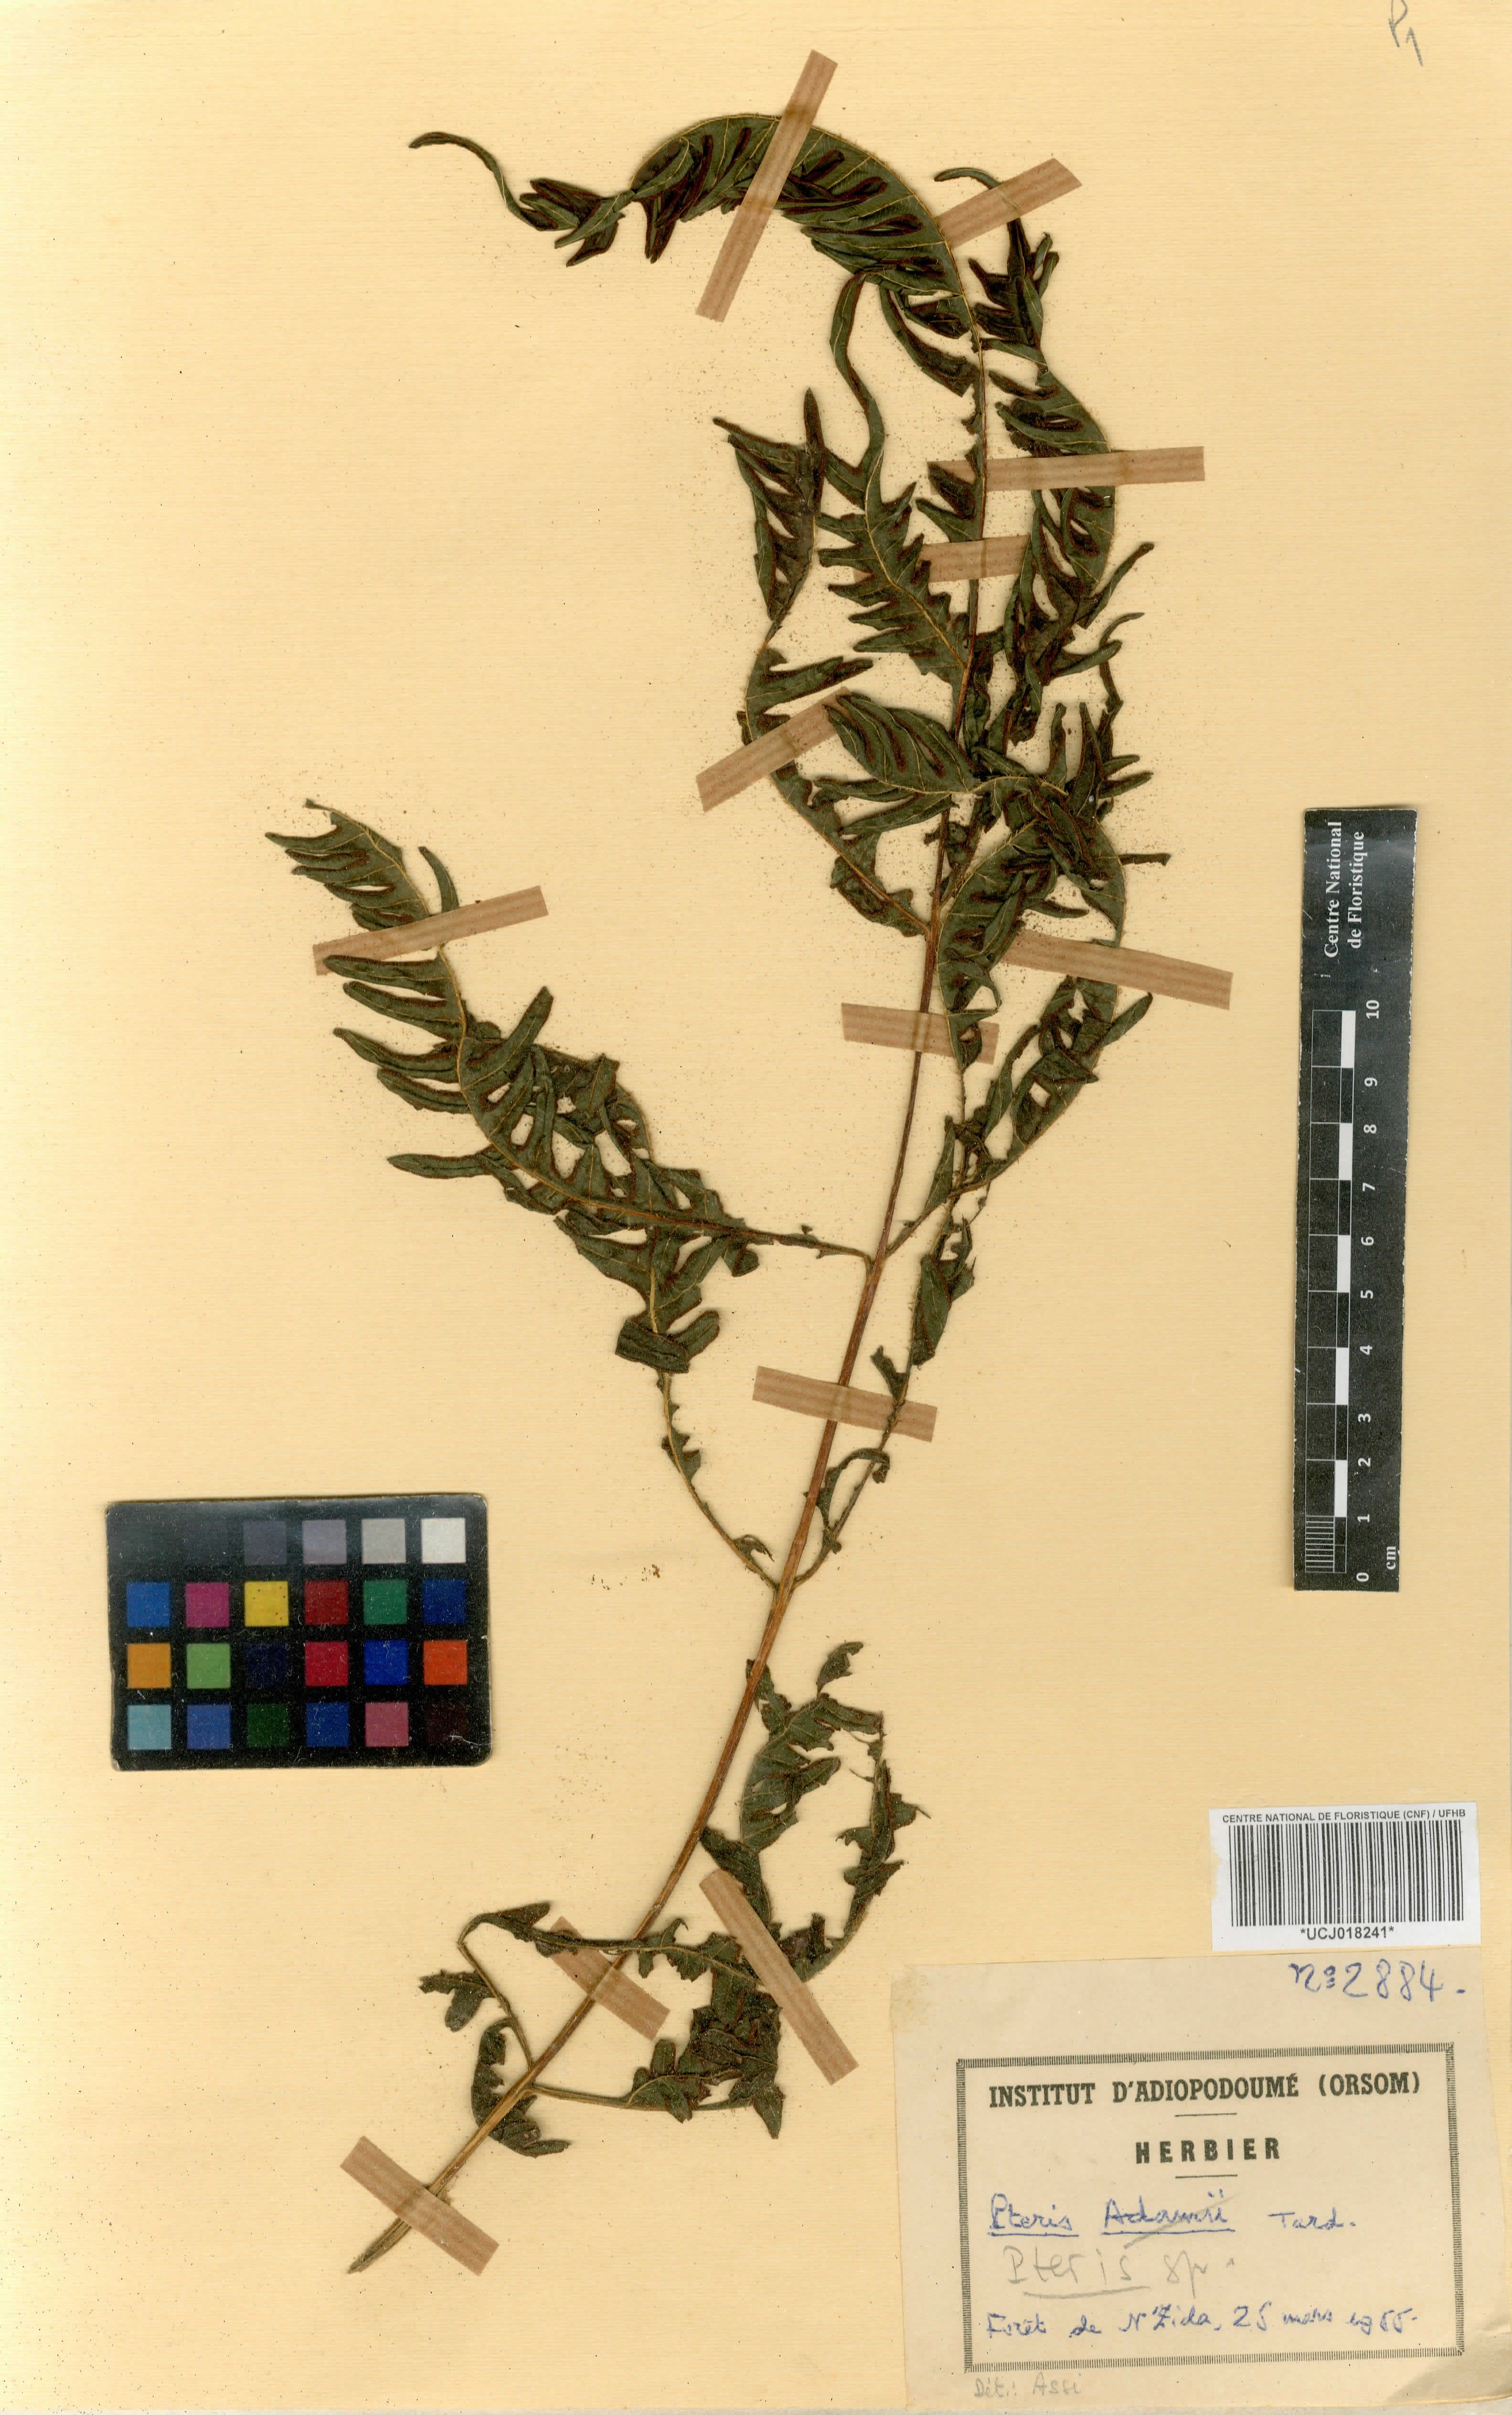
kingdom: Plantae
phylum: Tracheophyta
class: Polypodiopsida
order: Polypodiales
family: Pteridaceae
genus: Pteris
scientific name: Pteris
